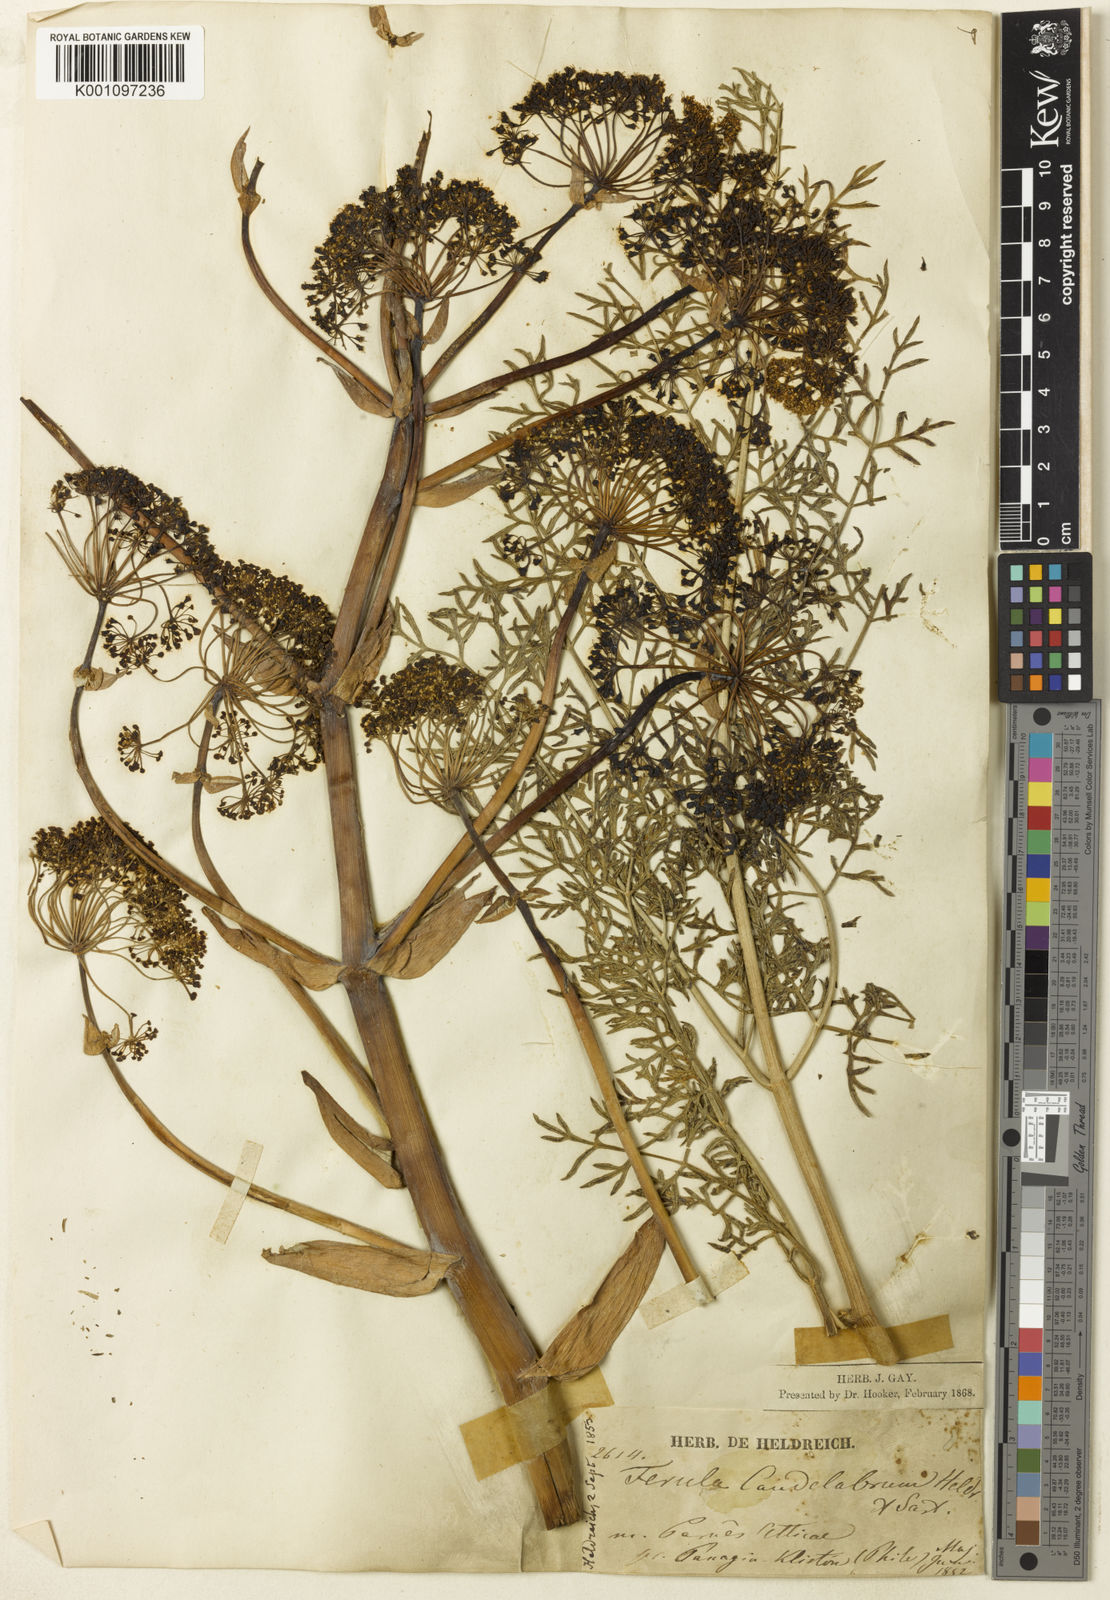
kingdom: Plantae
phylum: Tracheophyta
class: Magnoliopsida
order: Apiales
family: Apiaceae
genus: Ferula
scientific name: Ferula glauca
